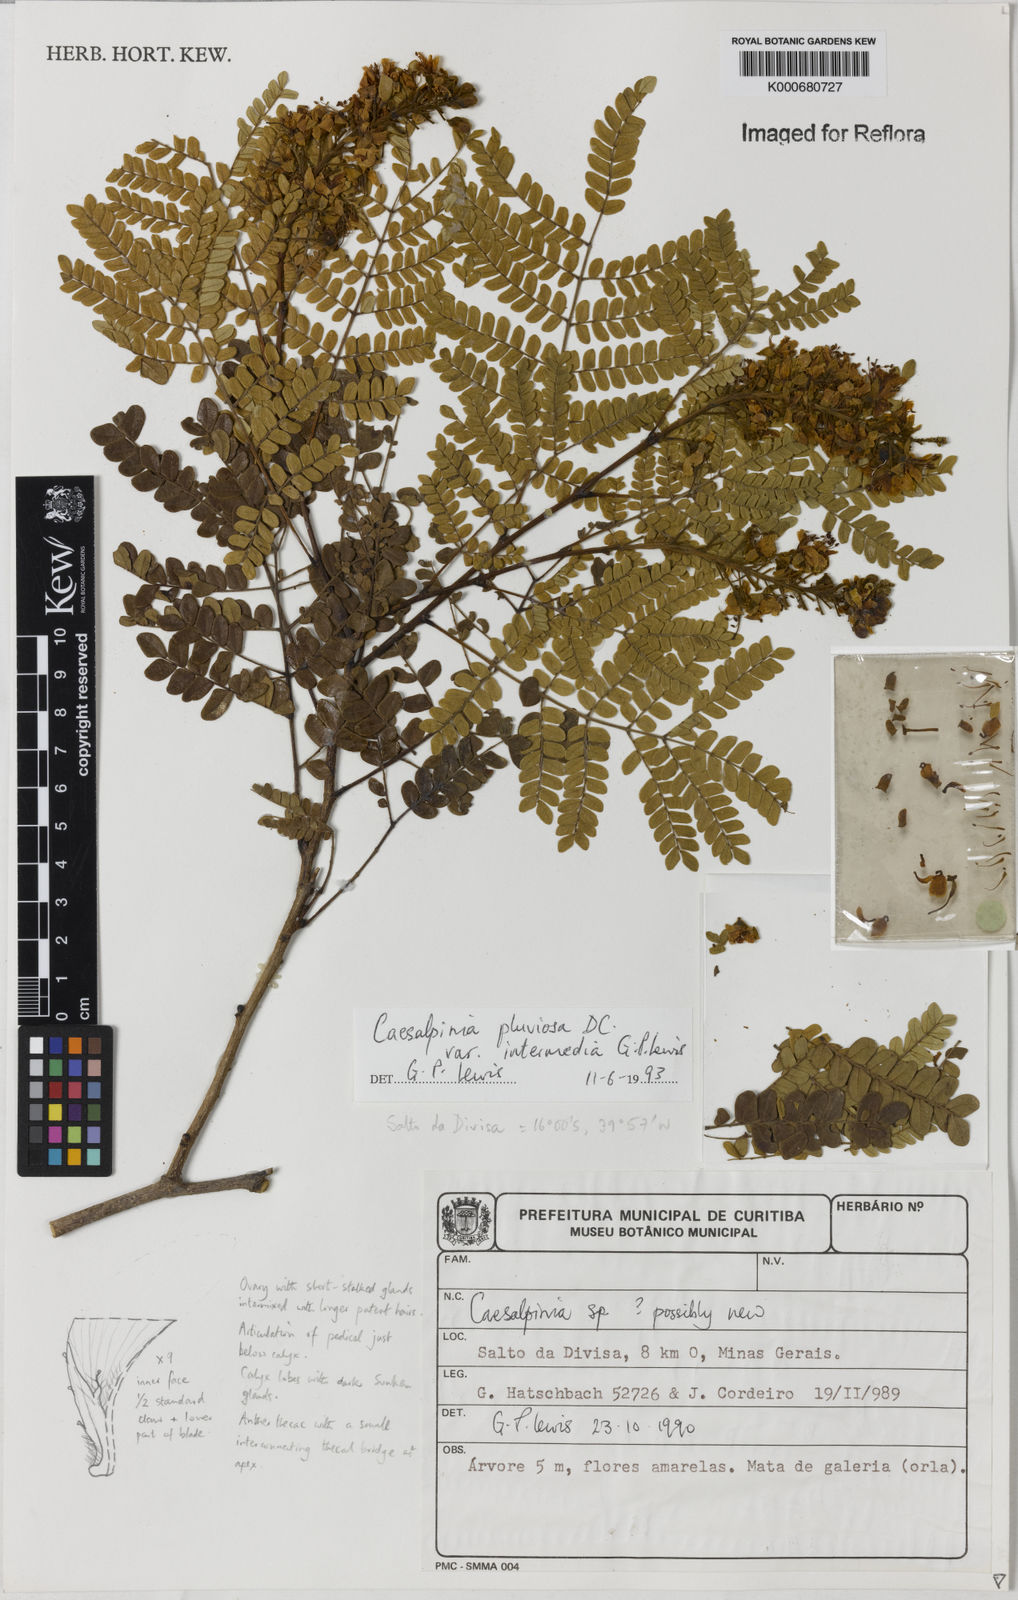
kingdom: Plantae
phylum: Tracheophyta
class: Magnoliopsida
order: Fabales
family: Fabaceae
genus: Cenostigma
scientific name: Cenostigma pluviosum
